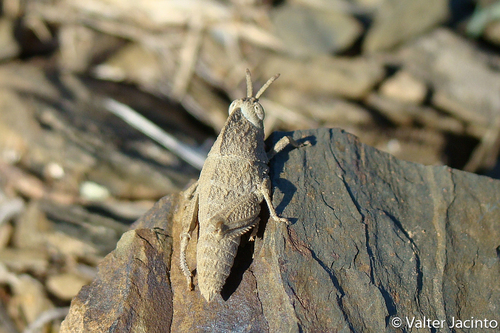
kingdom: Animalia
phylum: Arthropoda
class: Insecta
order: Orthoptera
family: Pamphagidae
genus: Ocnerodes
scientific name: Ocnerodes fallaciosus
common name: Misleading stone grasshopper
